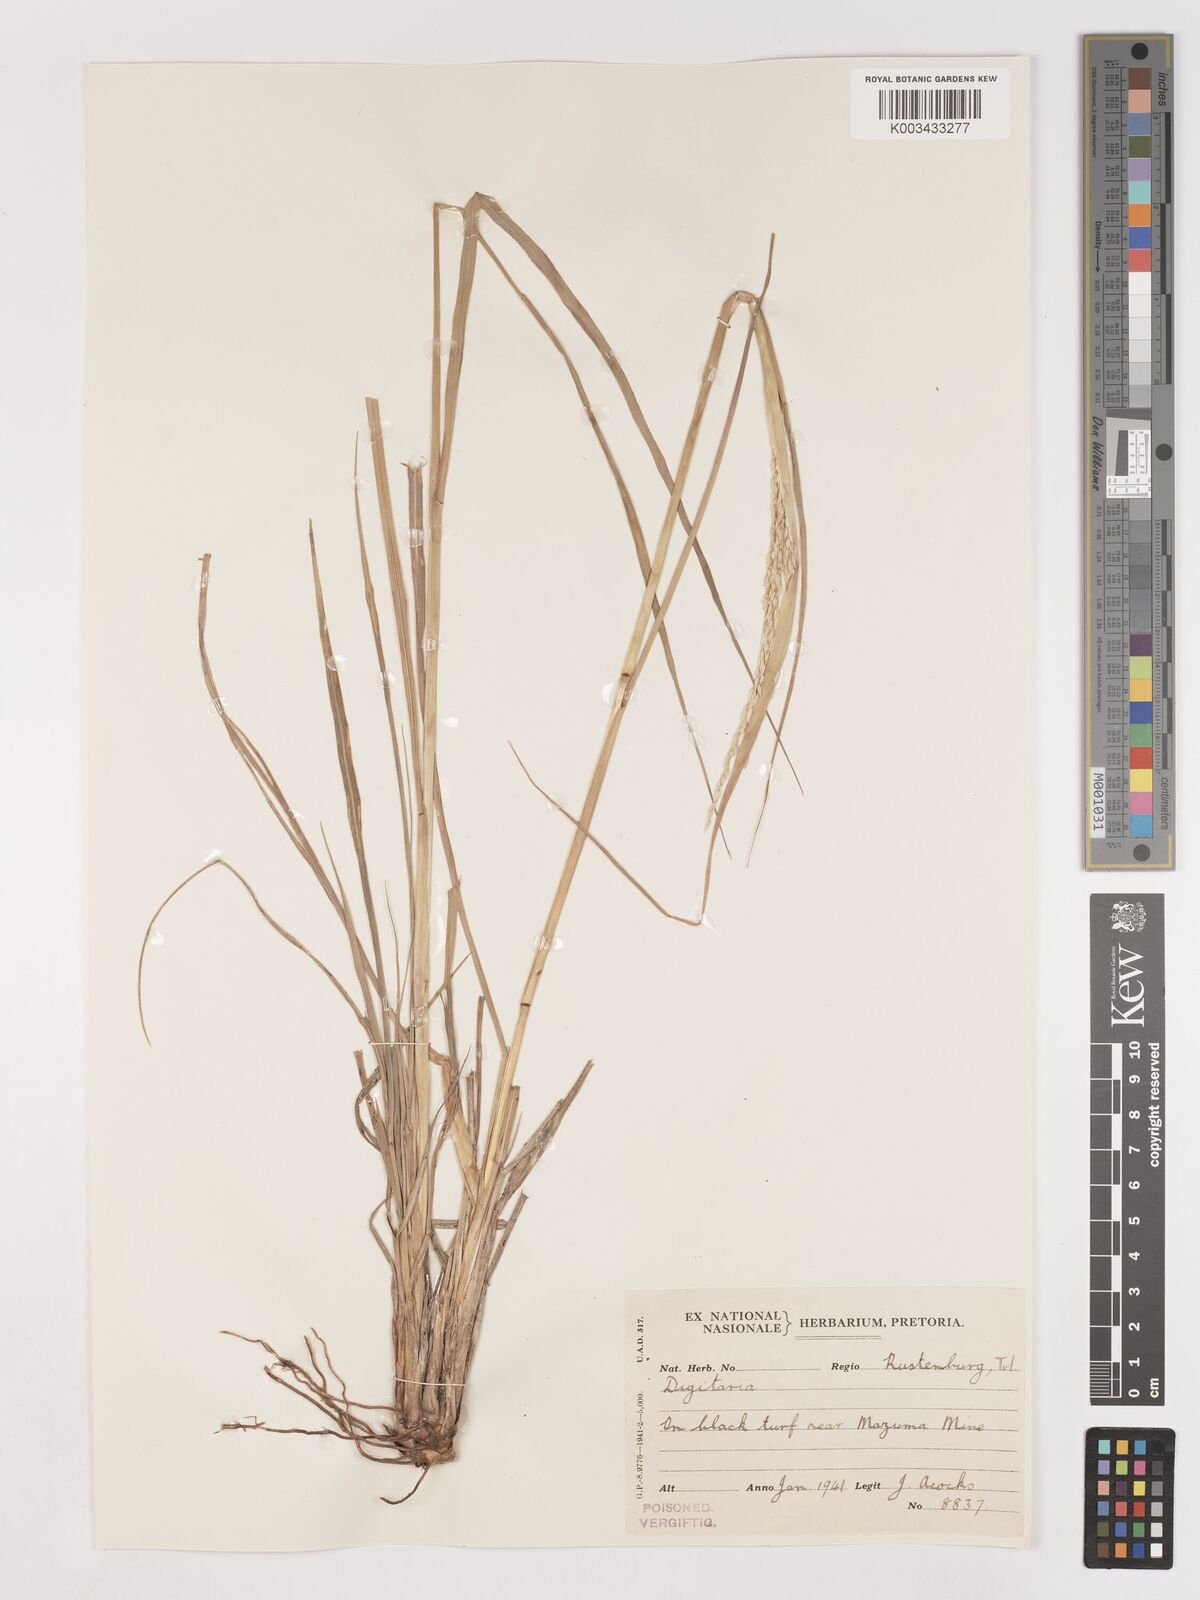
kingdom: Plantae
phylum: Tracheophyta
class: Liliopsida
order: Poales
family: Poaceae
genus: Digitaria
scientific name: Digitaria eriantha
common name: Digitgrass
